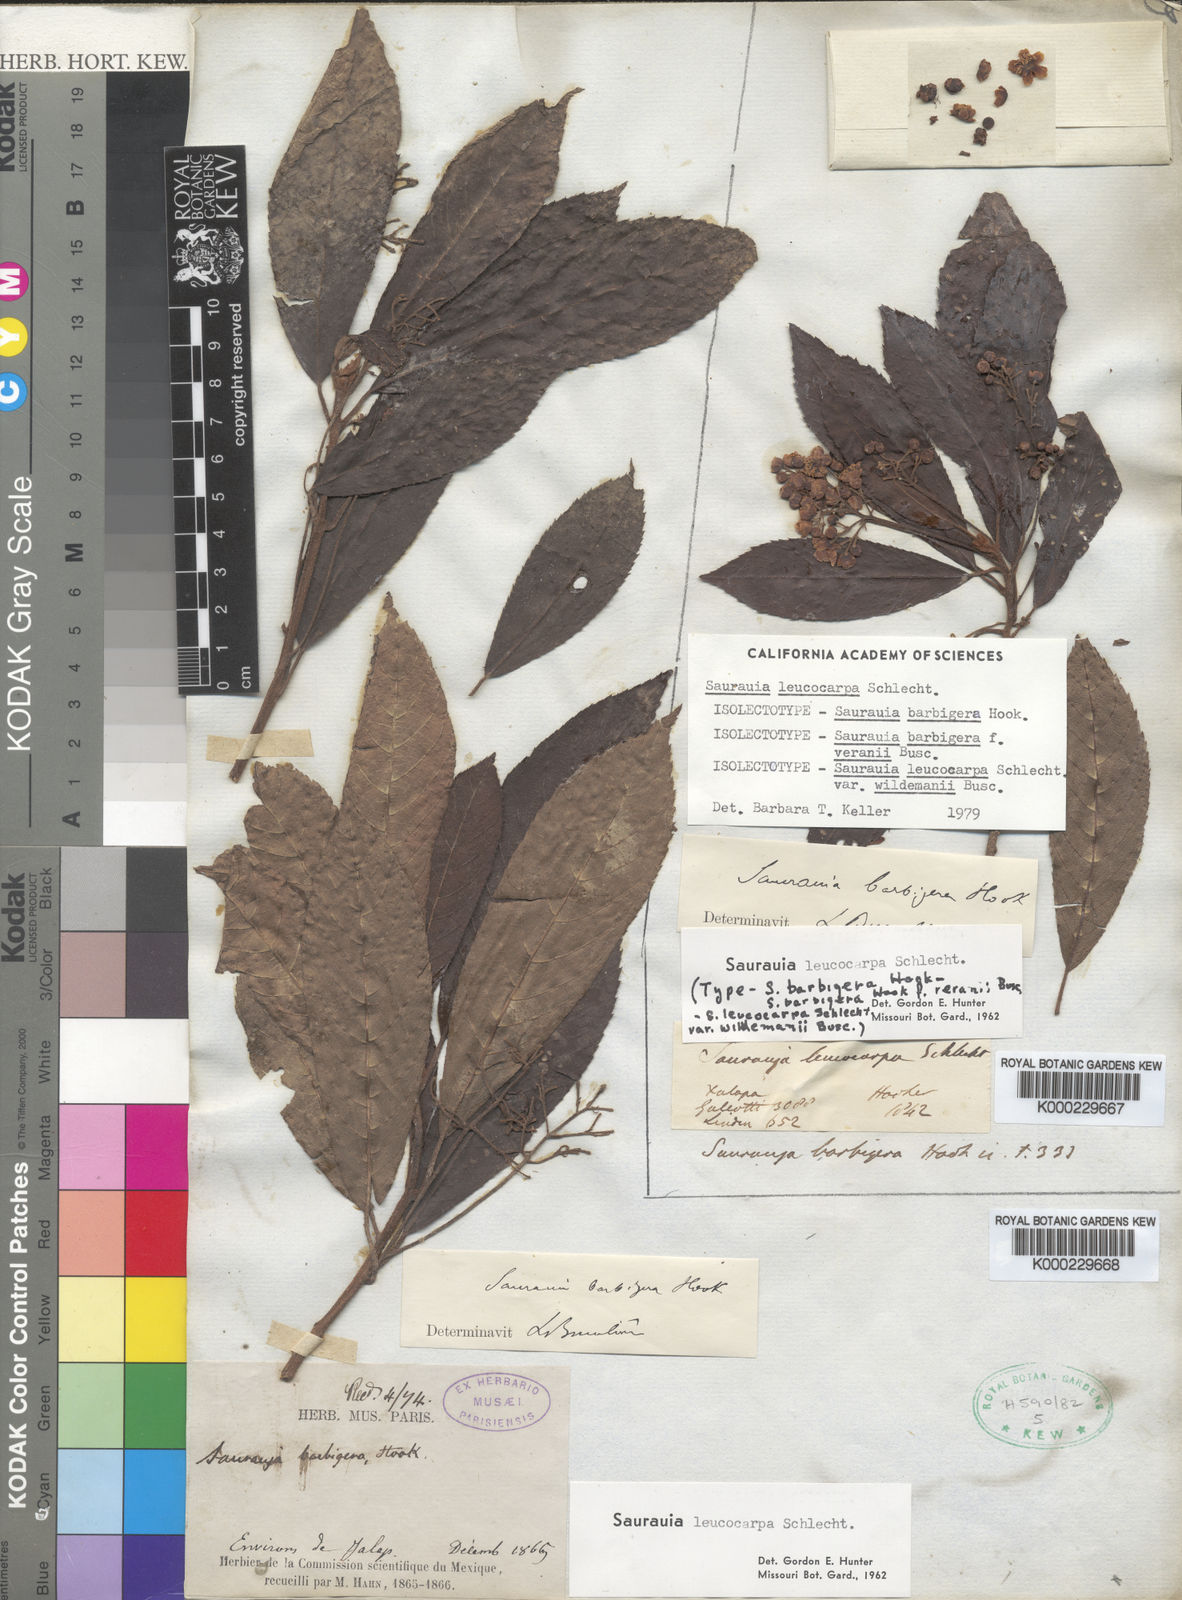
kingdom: Plantae
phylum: Tracheophyta
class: Magnoliopsida
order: Ericales
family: Actinidiaceae
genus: Saurauia
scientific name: Saurauia leucocarpa
